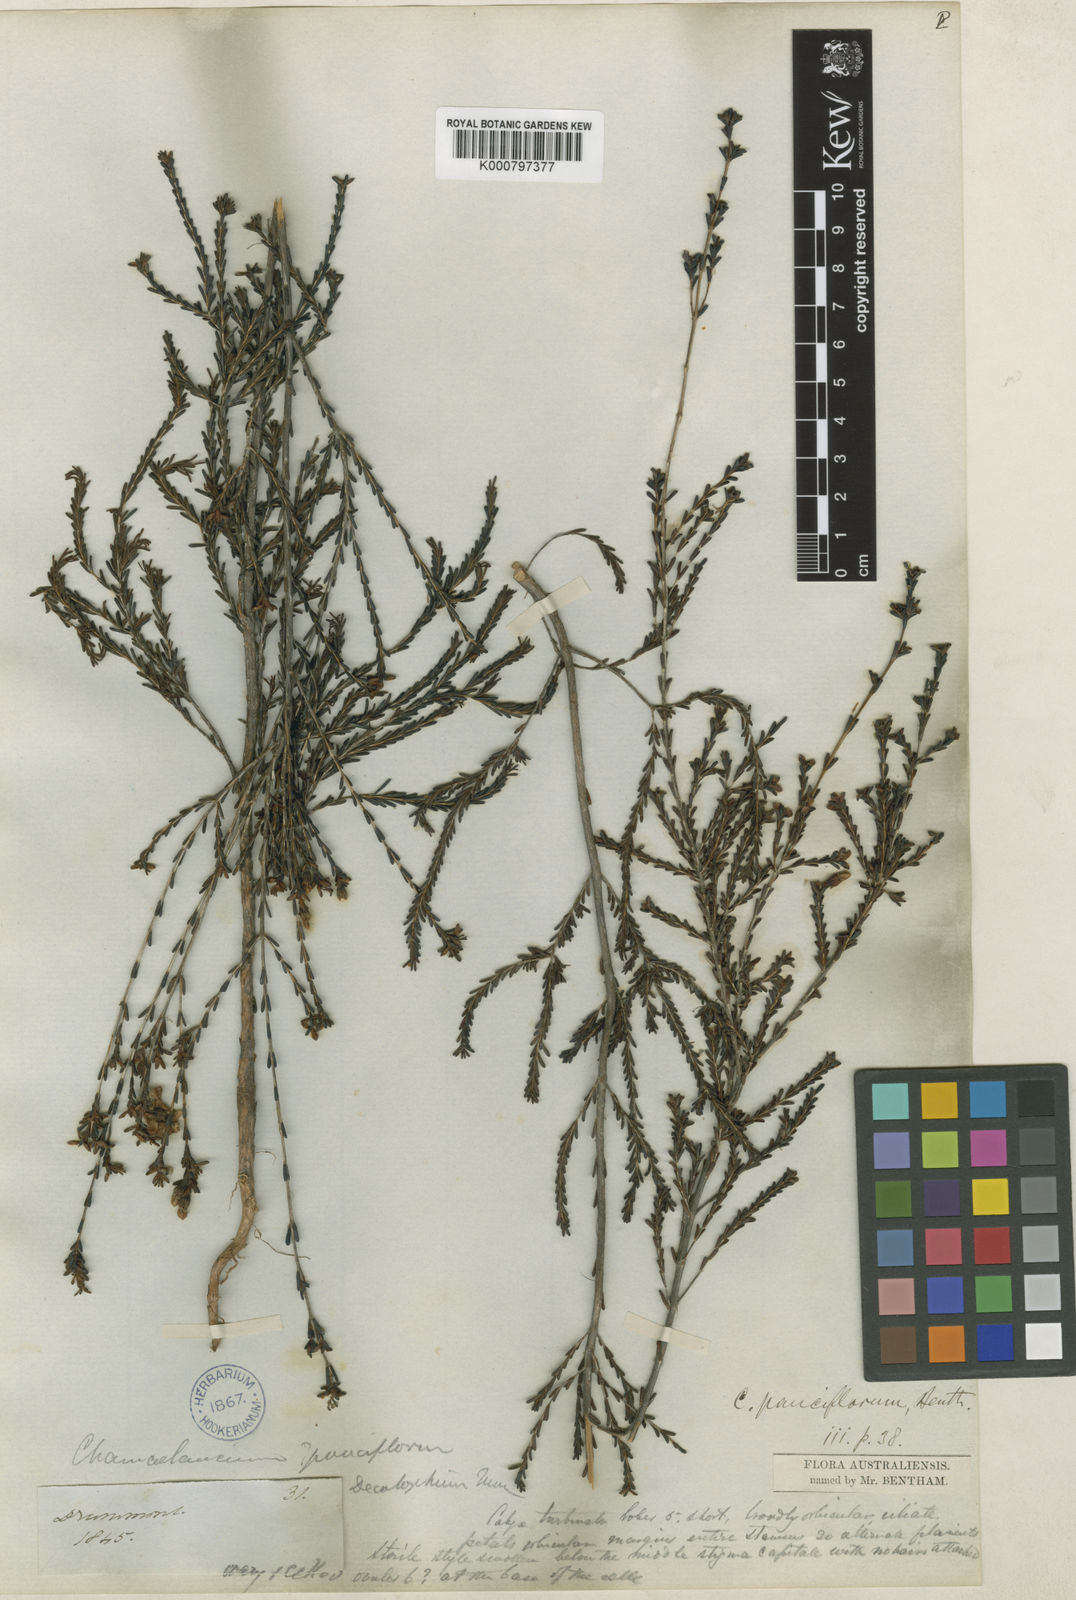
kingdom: Plantae
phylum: Tracheophyta
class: Magnoliopsida
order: Myrtales
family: Myrtaceae
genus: Chamelaucium
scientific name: Chamelaucium pauciflorum
